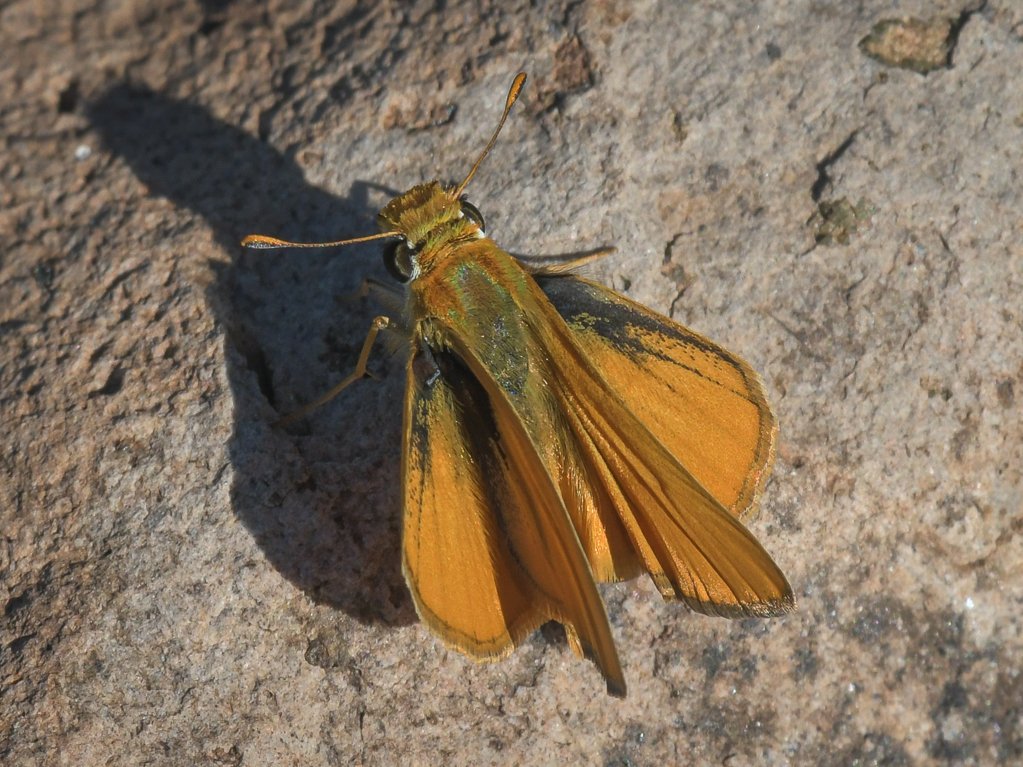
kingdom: Animalia
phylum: Arthropoda
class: Insecta
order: Lepidoptera
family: Hesperiidae
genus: Copaeodes
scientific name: Copaeodes aurantiaca
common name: Orange Skipperling
